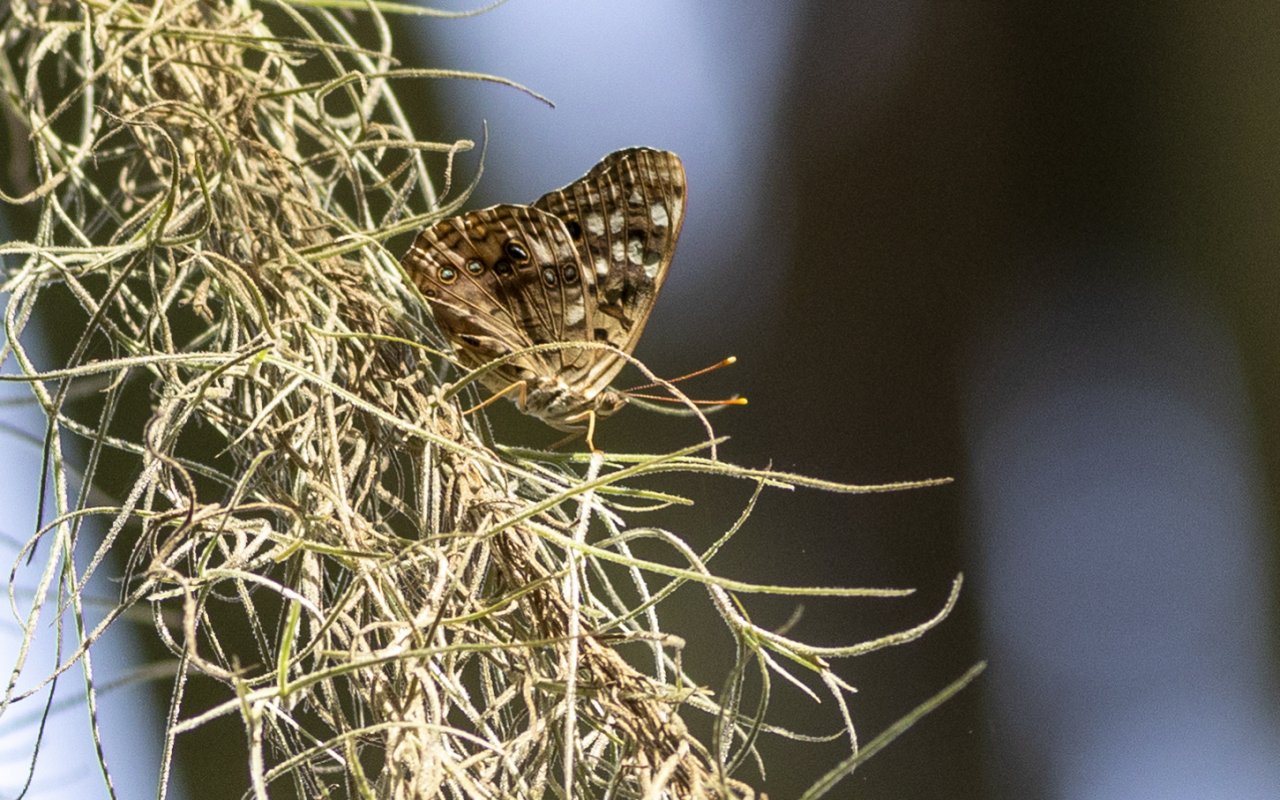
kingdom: Animalia
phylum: Arthropoda
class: Insecta
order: Lepidoptera
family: Nymphalidae
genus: Asterocampa
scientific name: Asterocampa celtis
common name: Hackberry Emperor
